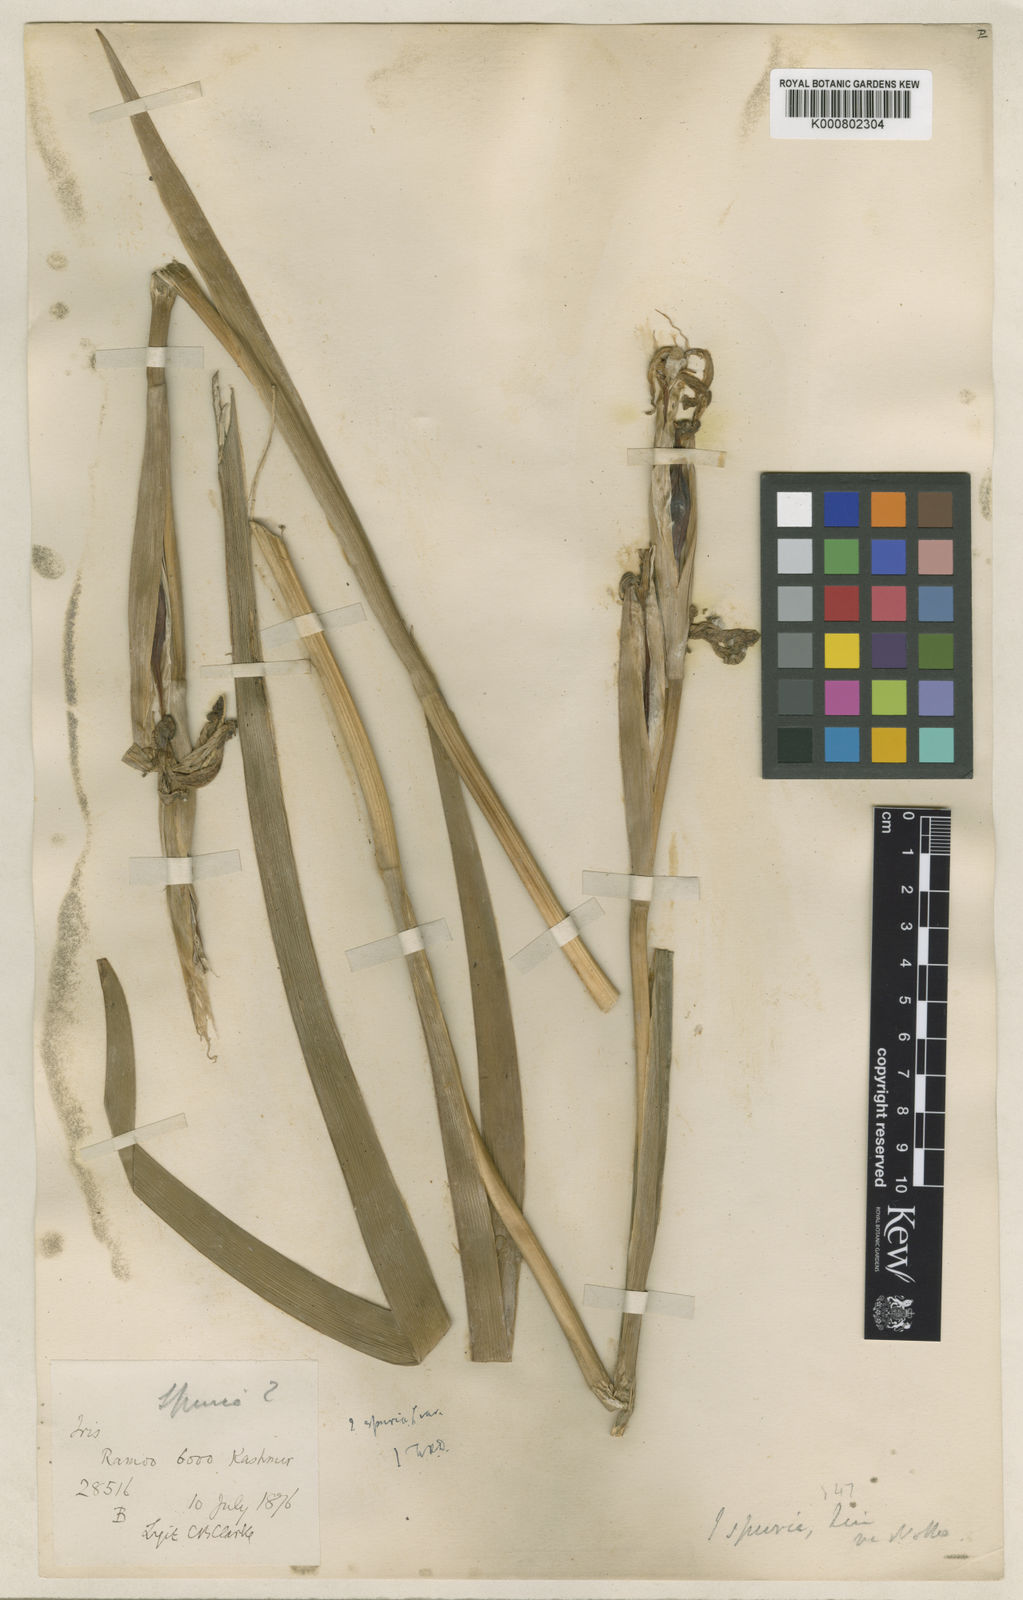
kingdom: Plantae
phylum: Tracheophyta
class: Liliopsida
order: Asparagales
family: Iridaceae
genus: Iris
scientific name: Iris spuria
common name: Blue iris
